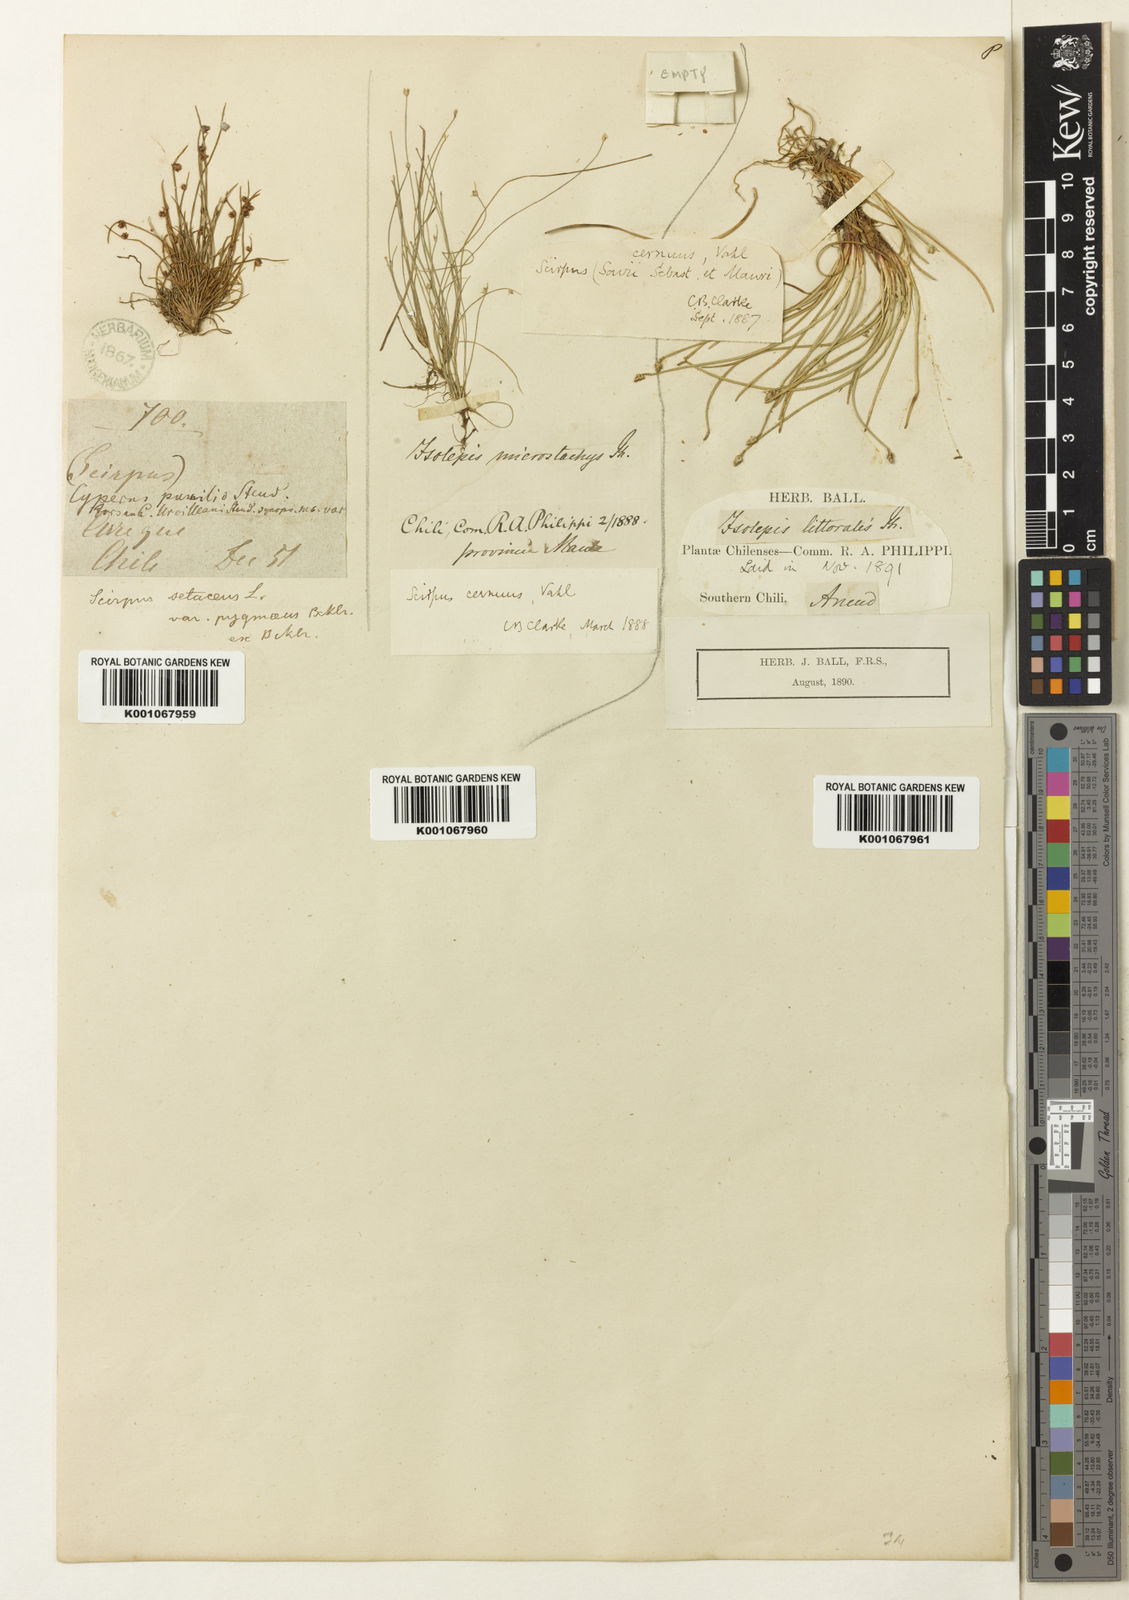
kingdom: Plantae
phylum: Tracheophyta
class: Liliopsida
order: Poales
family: Cyperaceae
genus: Isolepis
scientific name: Isolepis cernua
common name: Slender club-rush
